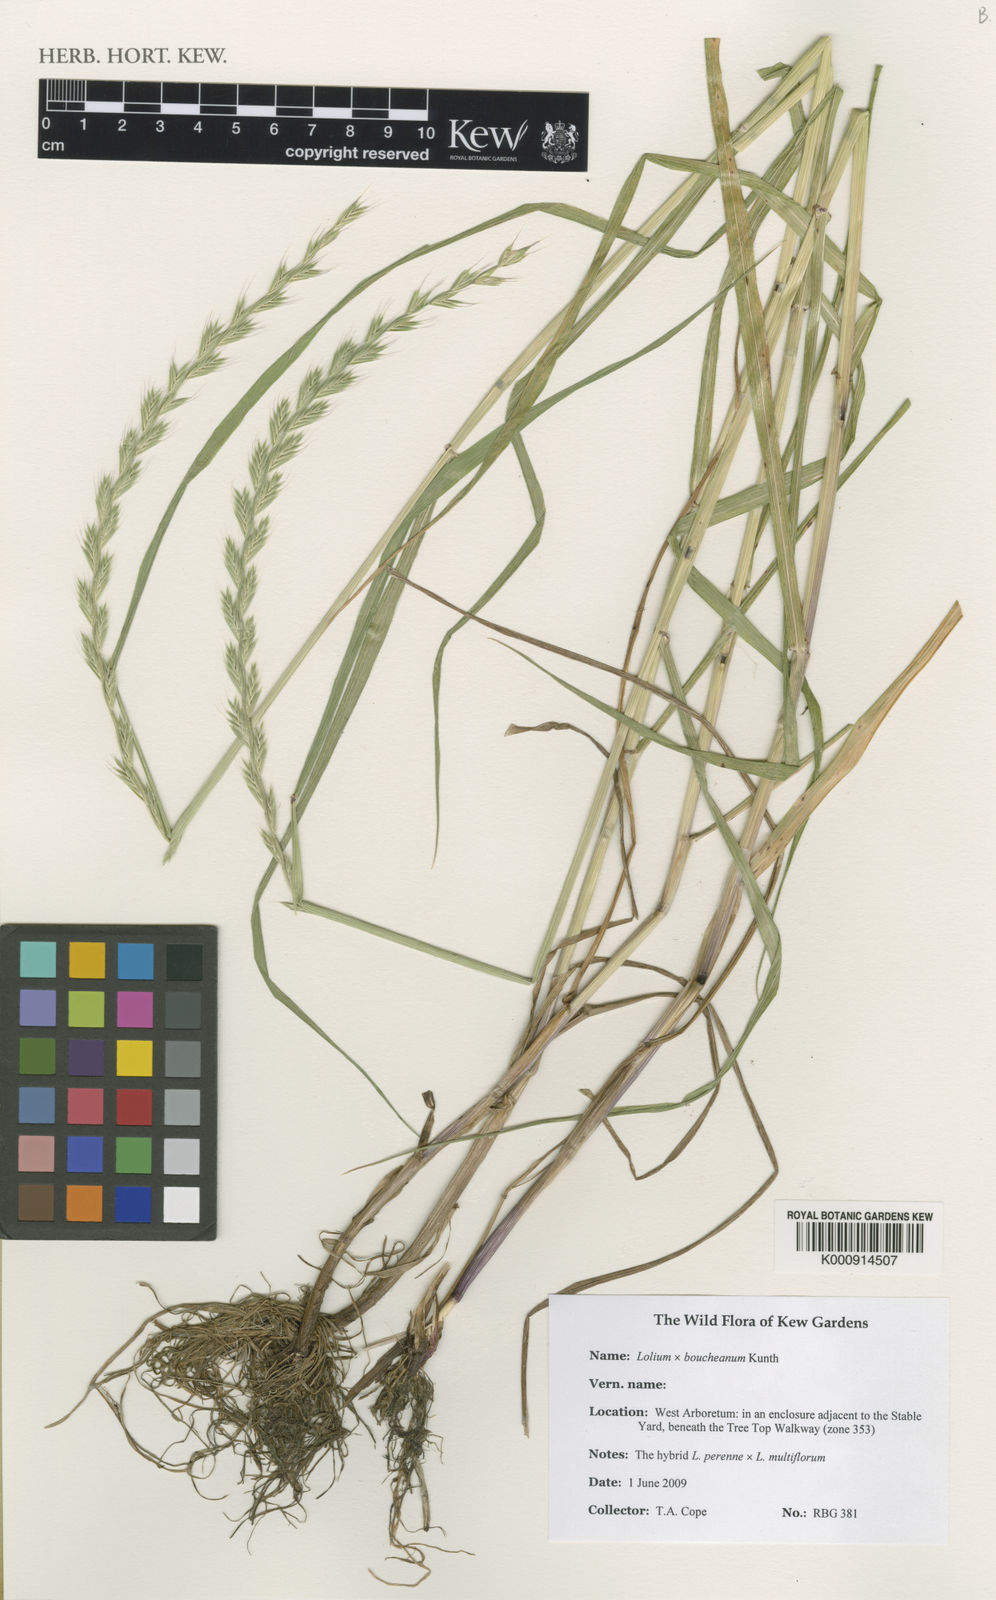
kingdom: Plantae
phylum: Tracheophyta
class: Liliopsida
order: Poales
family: Poaceae
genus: Lolium
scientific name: Lolium boucheanum
